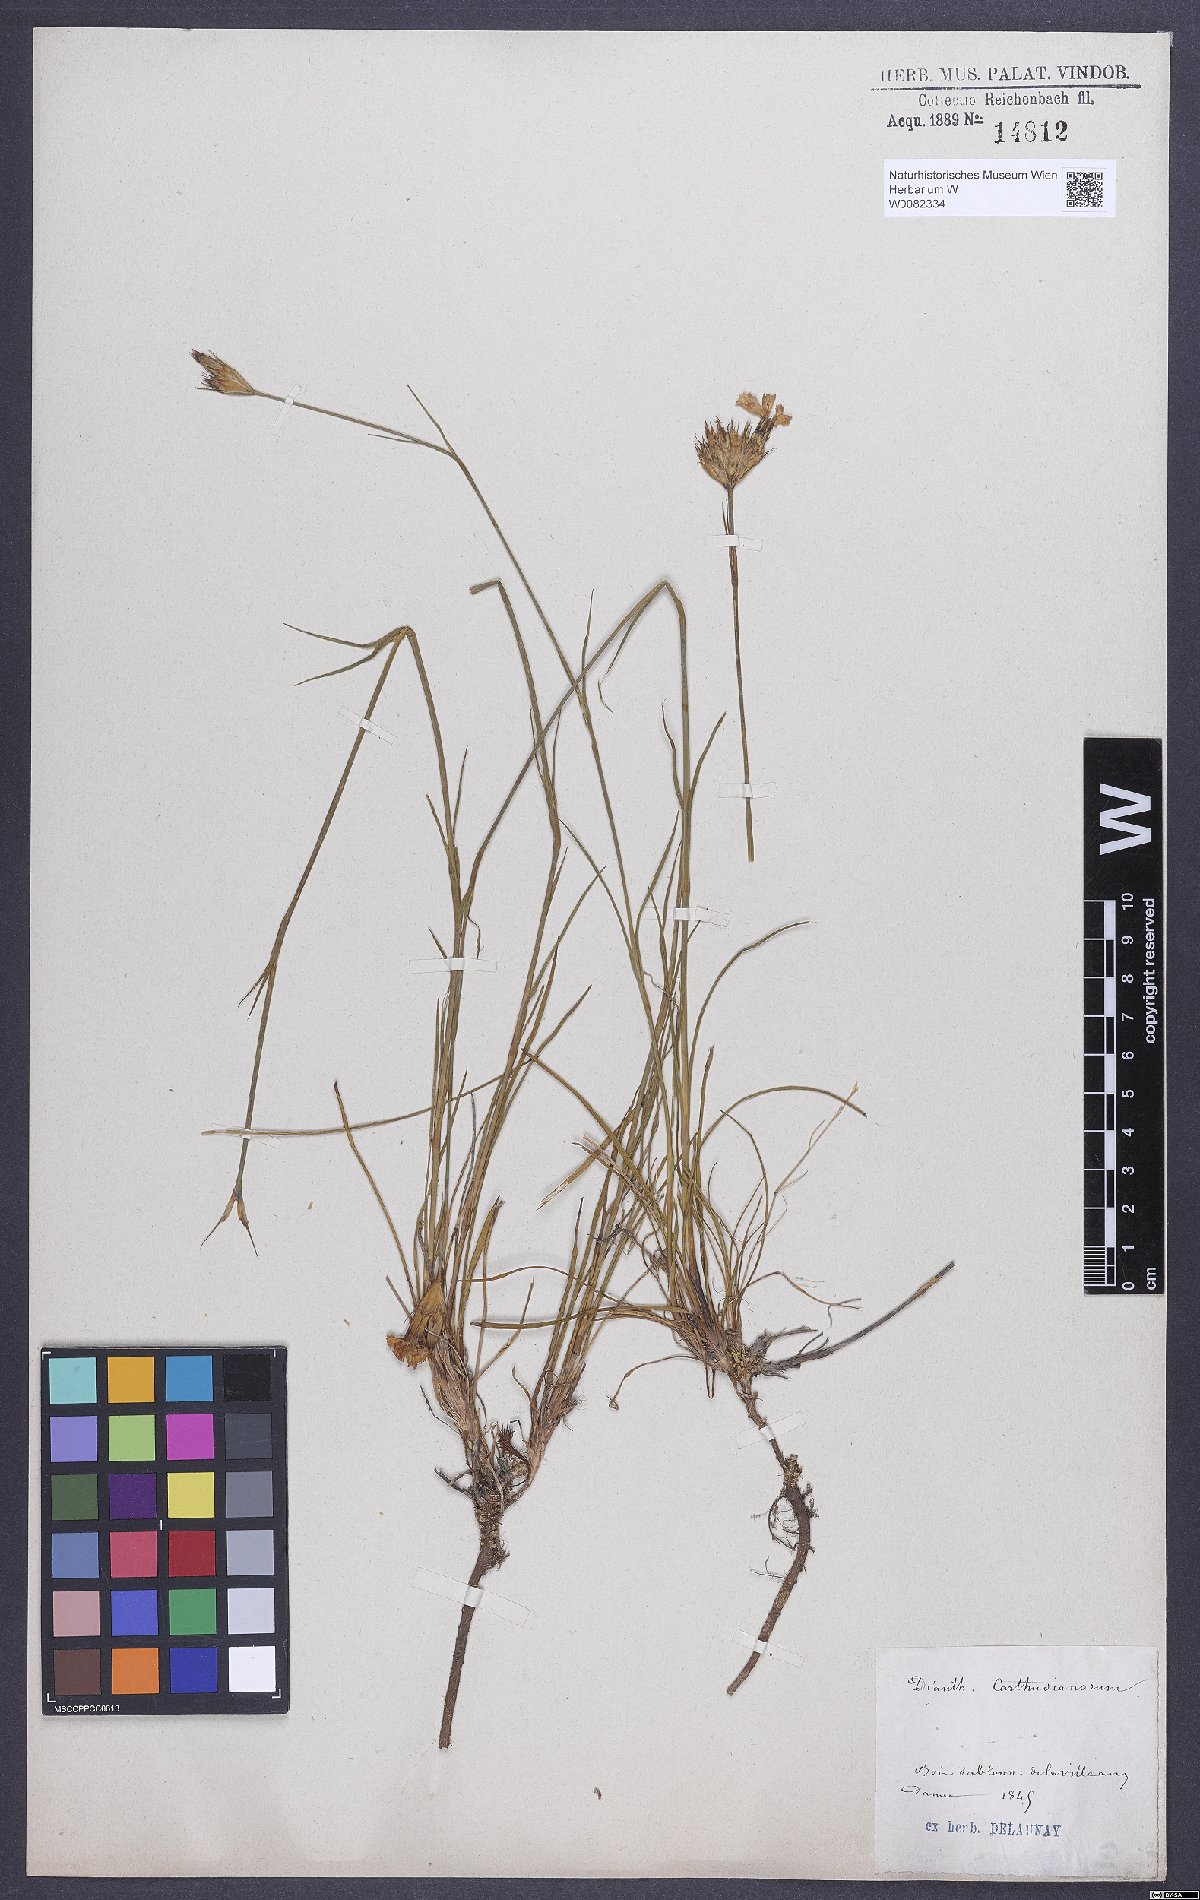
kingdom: Plantae
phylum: Tracheophyta
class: Magnoliopsida
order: Caryophyllales
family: Caryophyllaceae
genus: Dianthus
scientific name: Dianthus carthusianorum
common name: Carthusian pink
